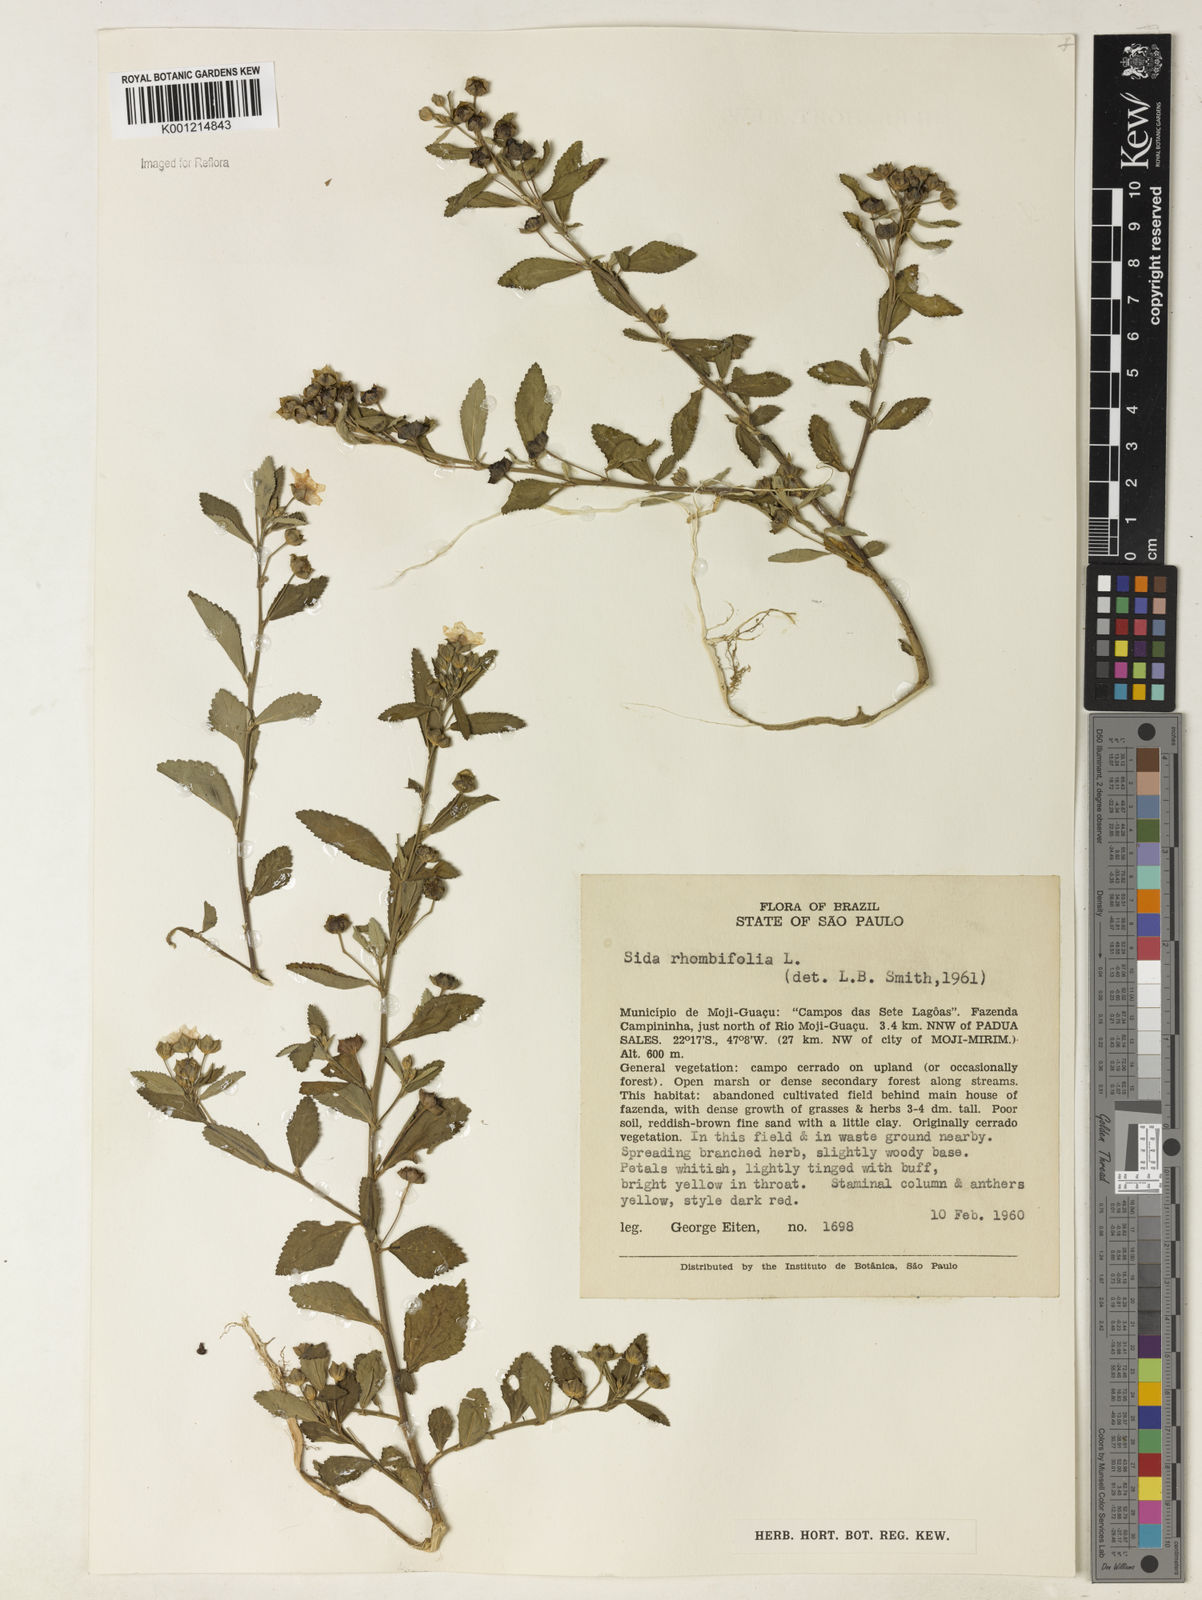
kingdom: Plantae
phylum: Tracheophyta
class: Magnoliopsida
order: Malvales
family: Malvaceae
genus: Sida
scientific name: Sida rhombifolia
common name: Queensland-hemp
